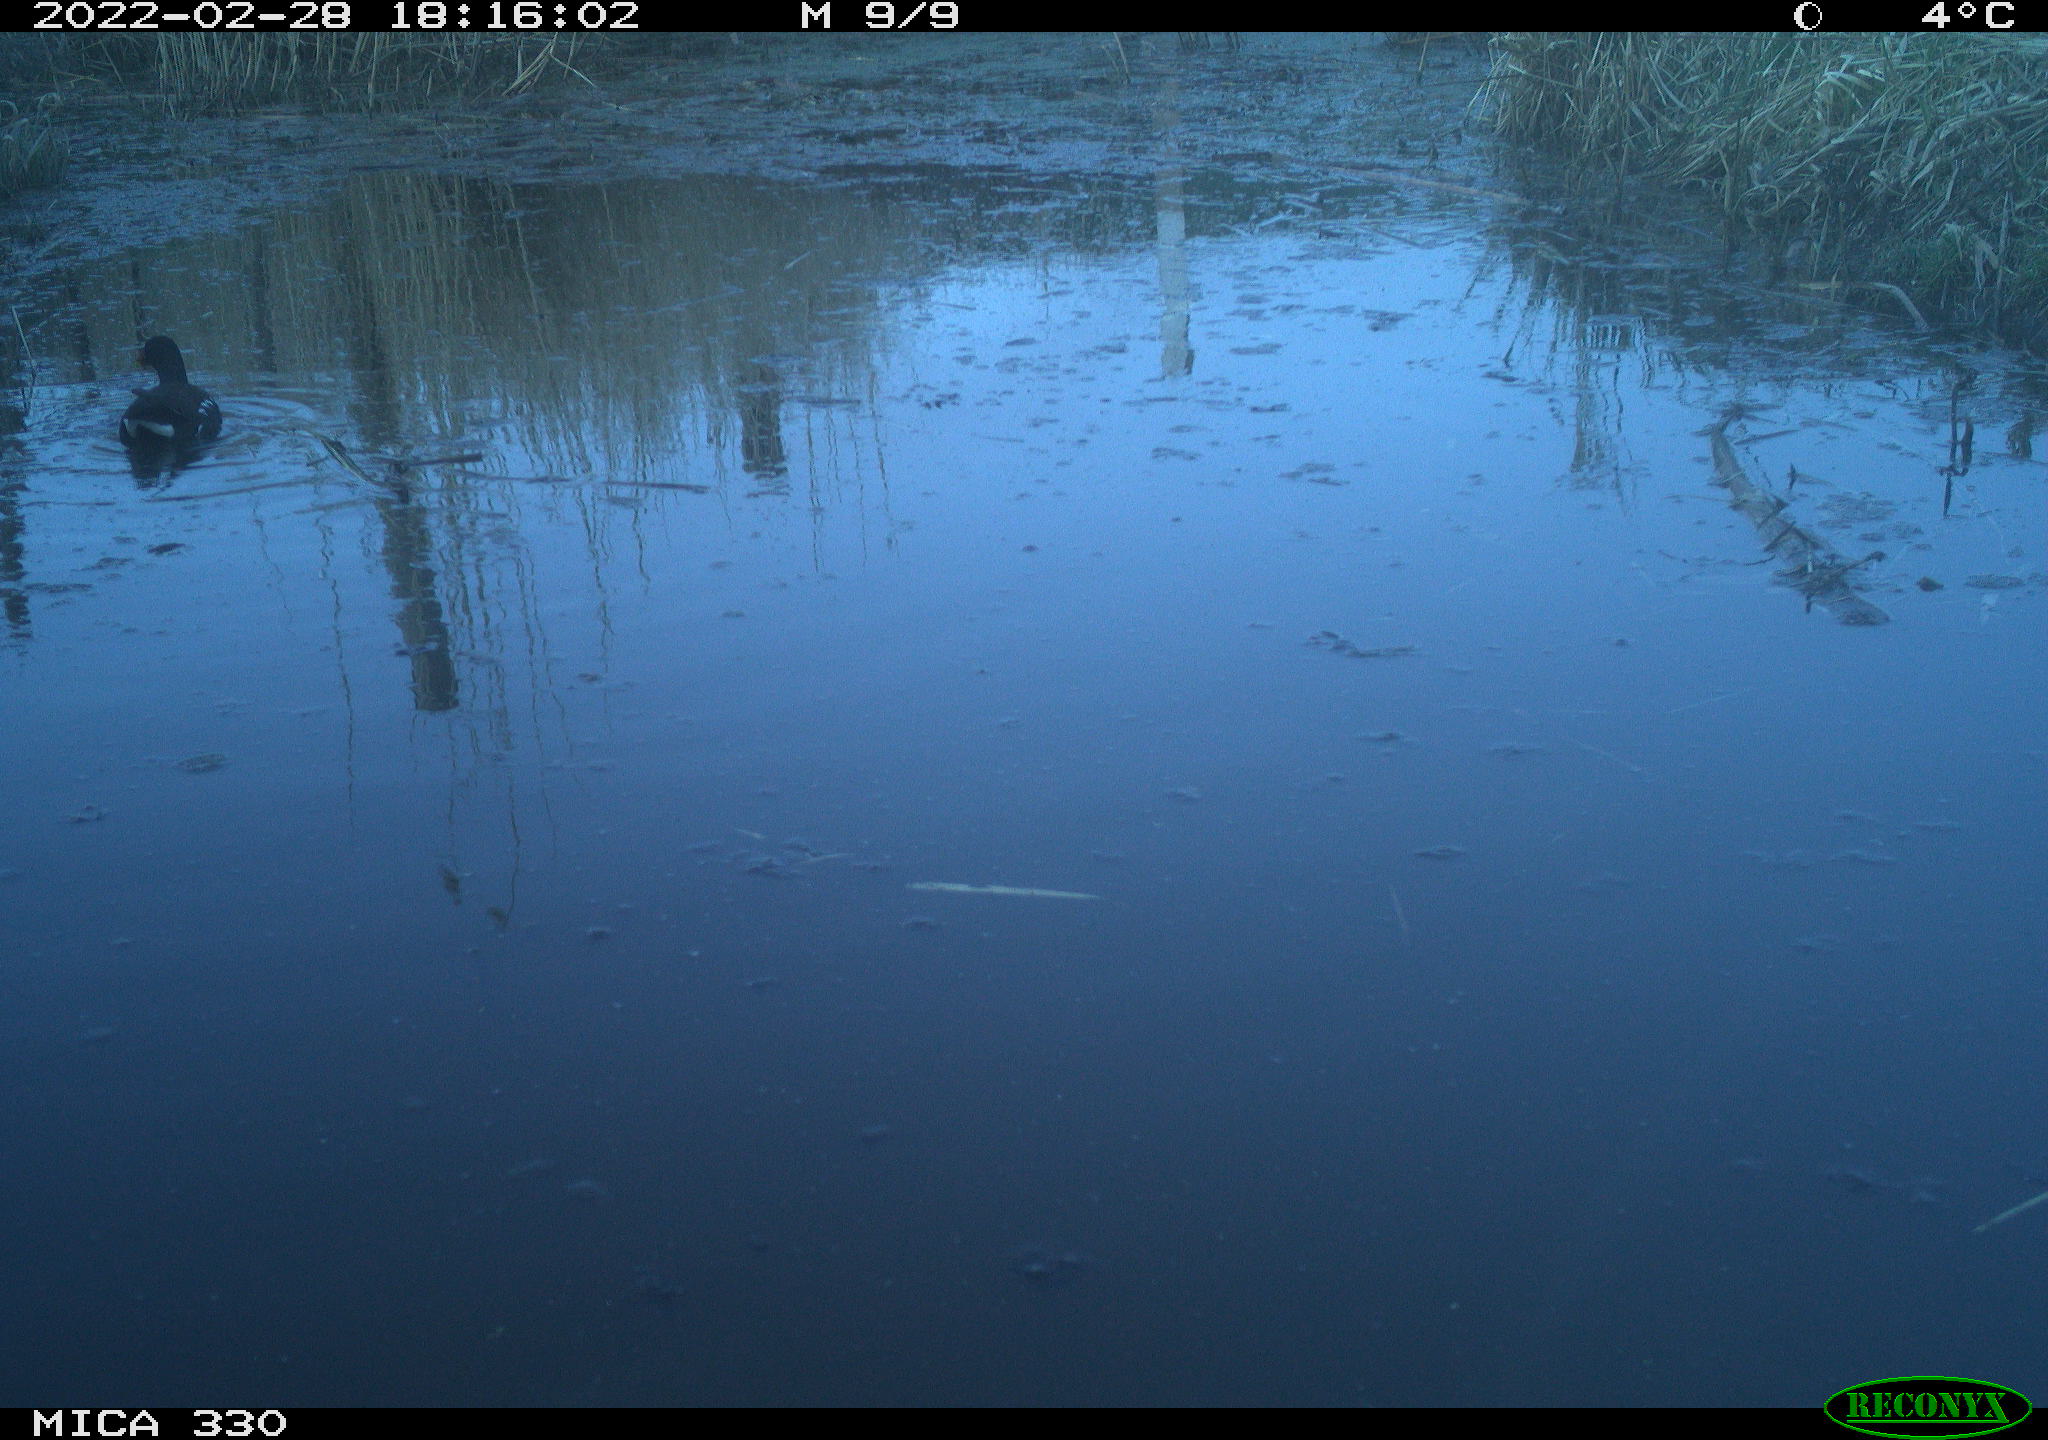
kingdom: Animalia
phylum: Chordata
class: Aves
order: Gruiformes
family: Rallidae
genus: Gallinula
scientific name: Gallinula chloropus
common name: Common moorhen
